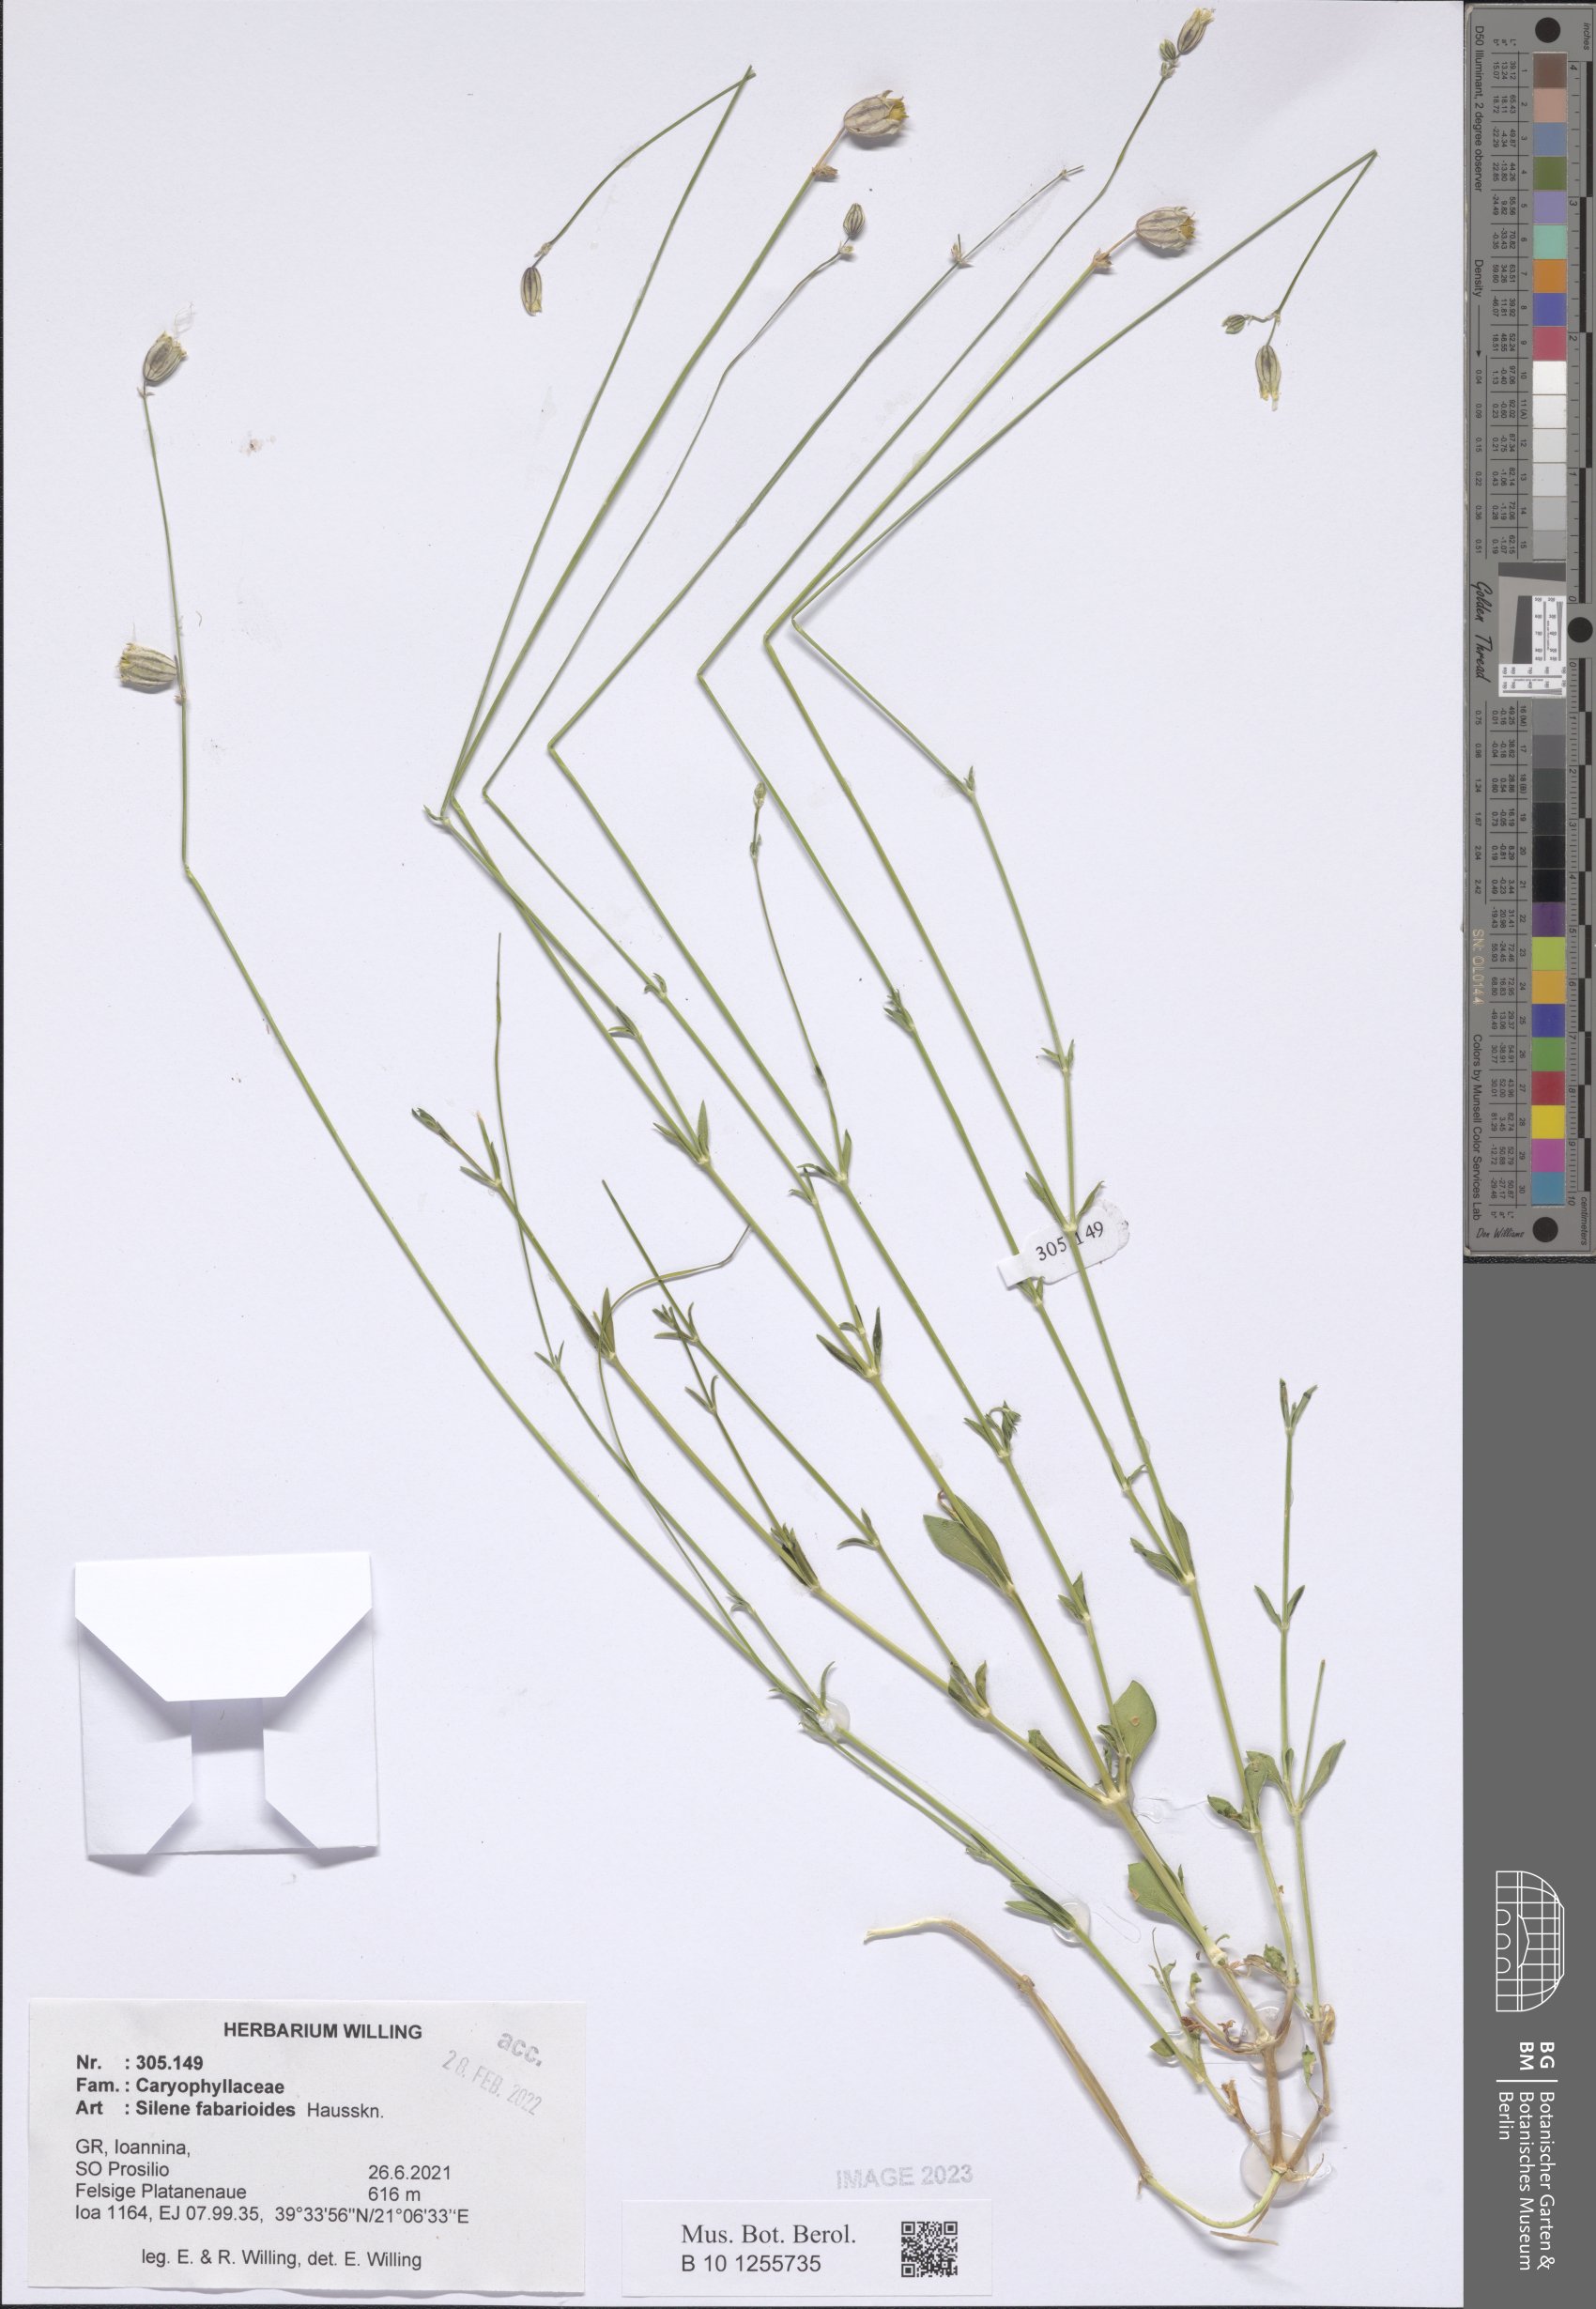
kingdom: Plantae
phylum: Tracheophyta
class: Magnoliopsida
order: Caryophyllales
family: Caryophyllaceae
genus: Silene
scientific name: Silene fabarioides
